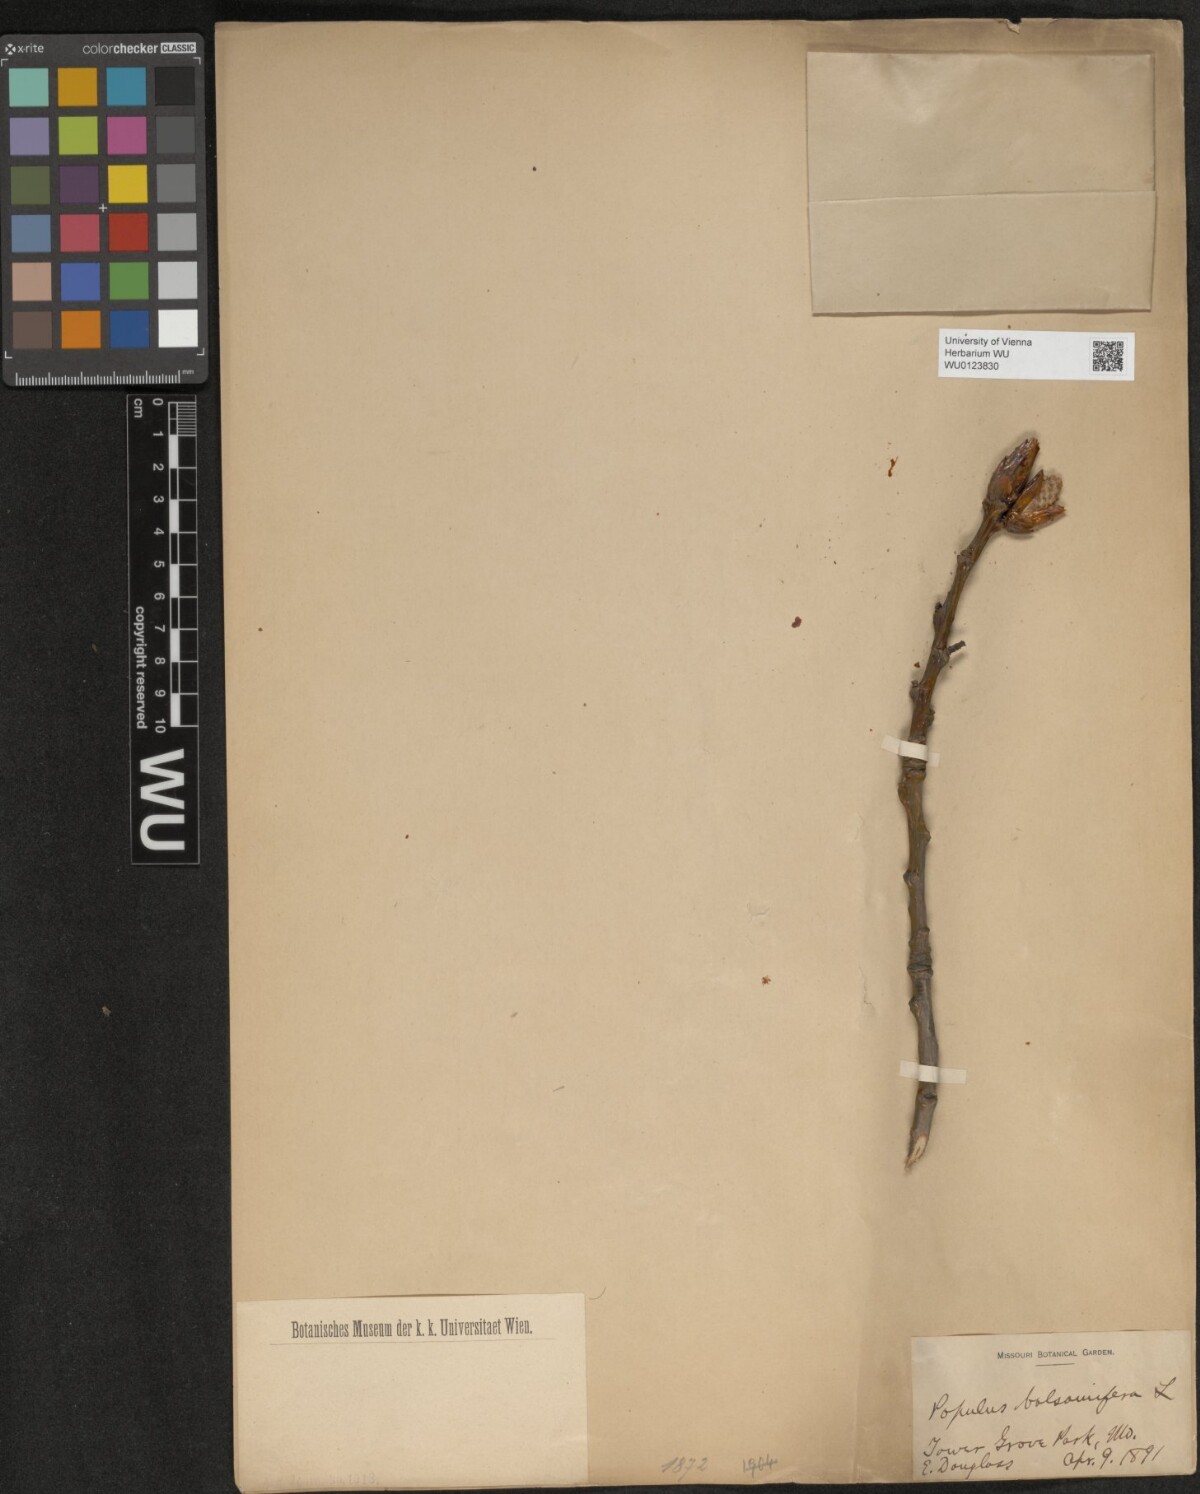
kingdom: Plantae
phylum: Tracheophyta
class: Magnoliopsida
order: Malpighiales
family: Salicaceae
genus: Populus
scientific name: Populus balsamifera
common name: Balsam poplar
